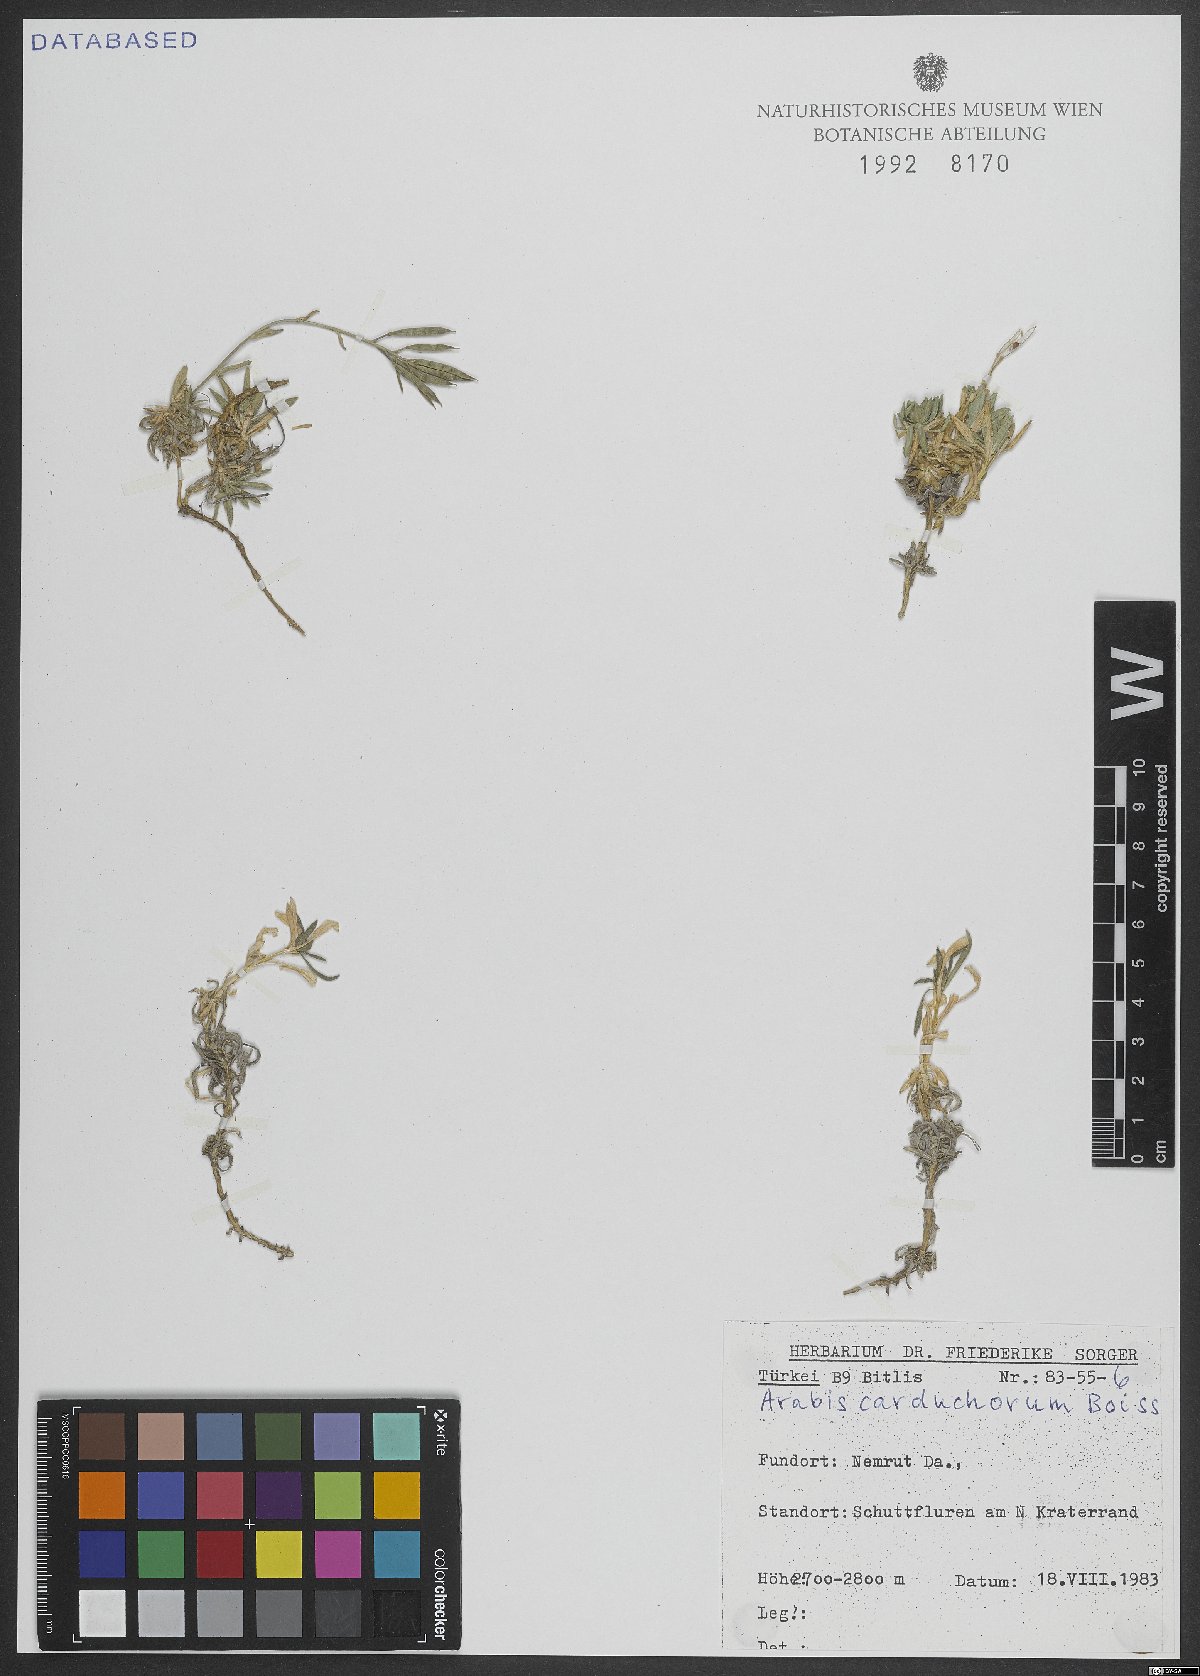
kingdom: Plantae
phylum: Tracheophyta
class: Magnoliopsida
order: Brassicales
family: Brassicaceae
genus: Arabis
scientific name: Arabis carduchorum
